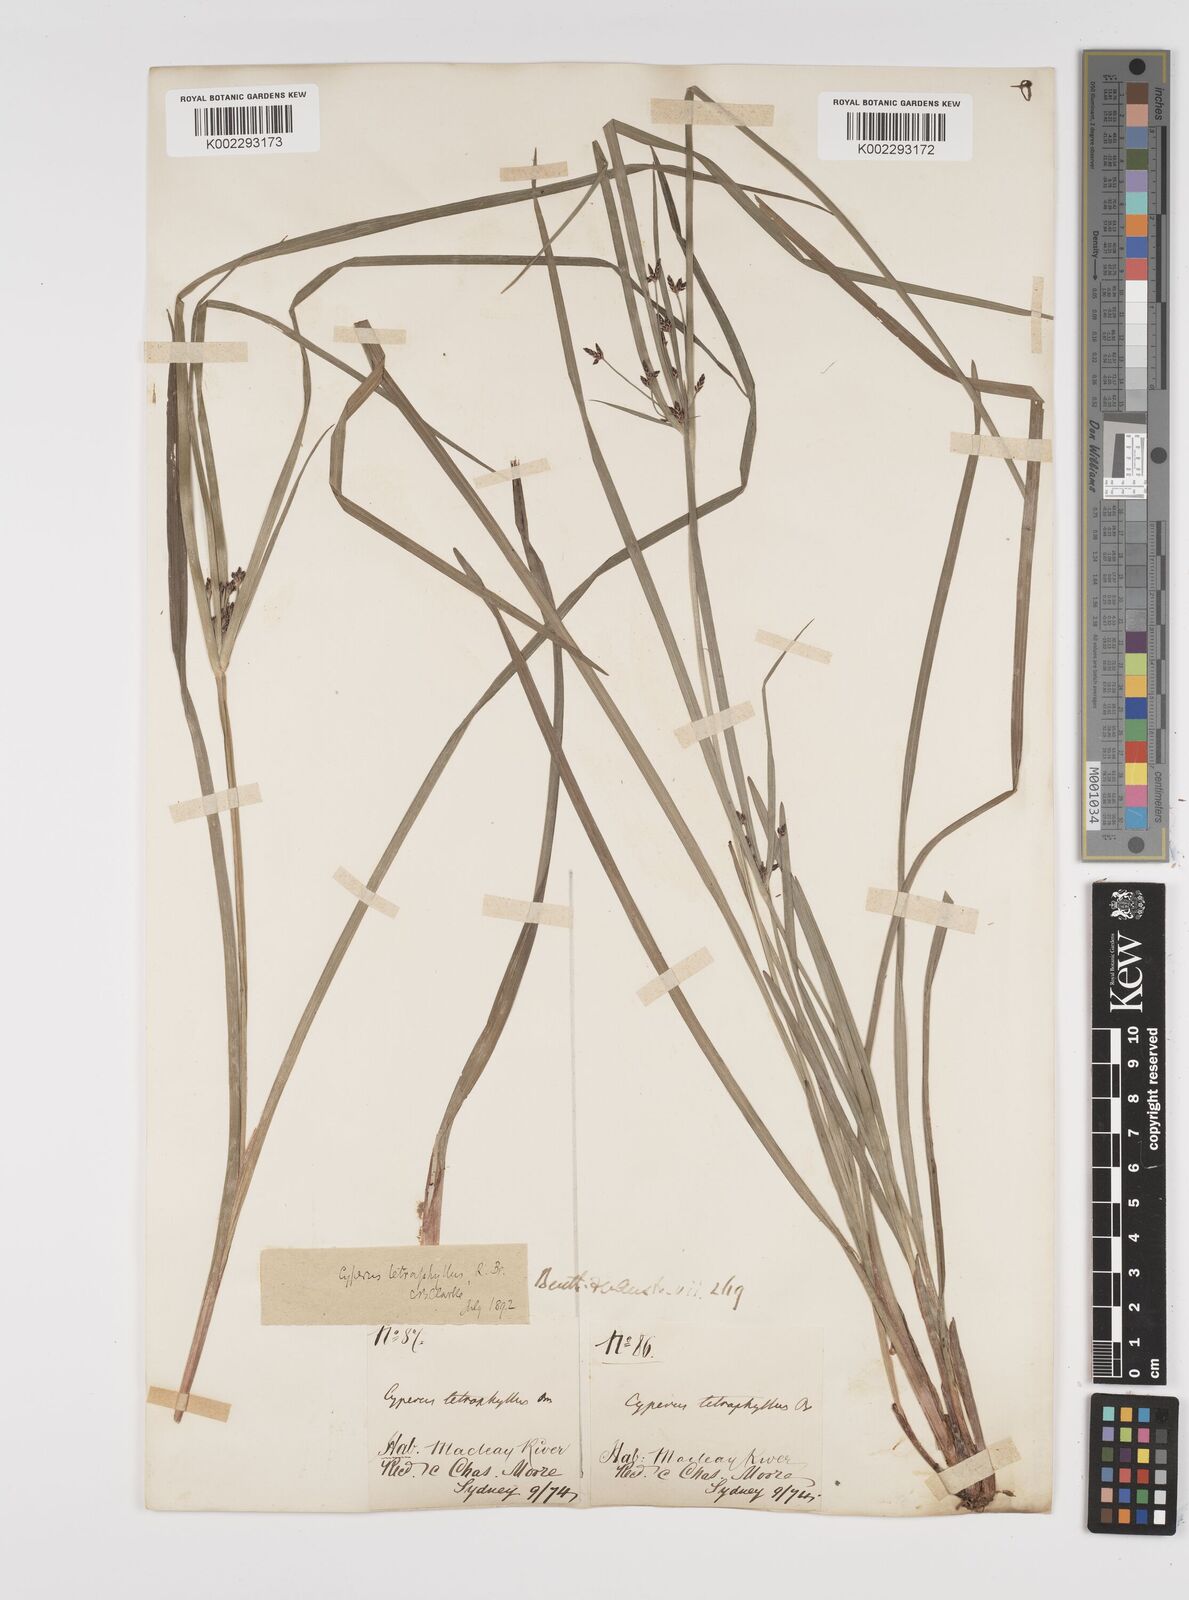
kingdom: Plantae
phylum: Tracheophyta
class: Liliopsida
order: Poales
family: Cyperaceae
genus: Cyperus
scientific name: Cyperus tetraphyllus
